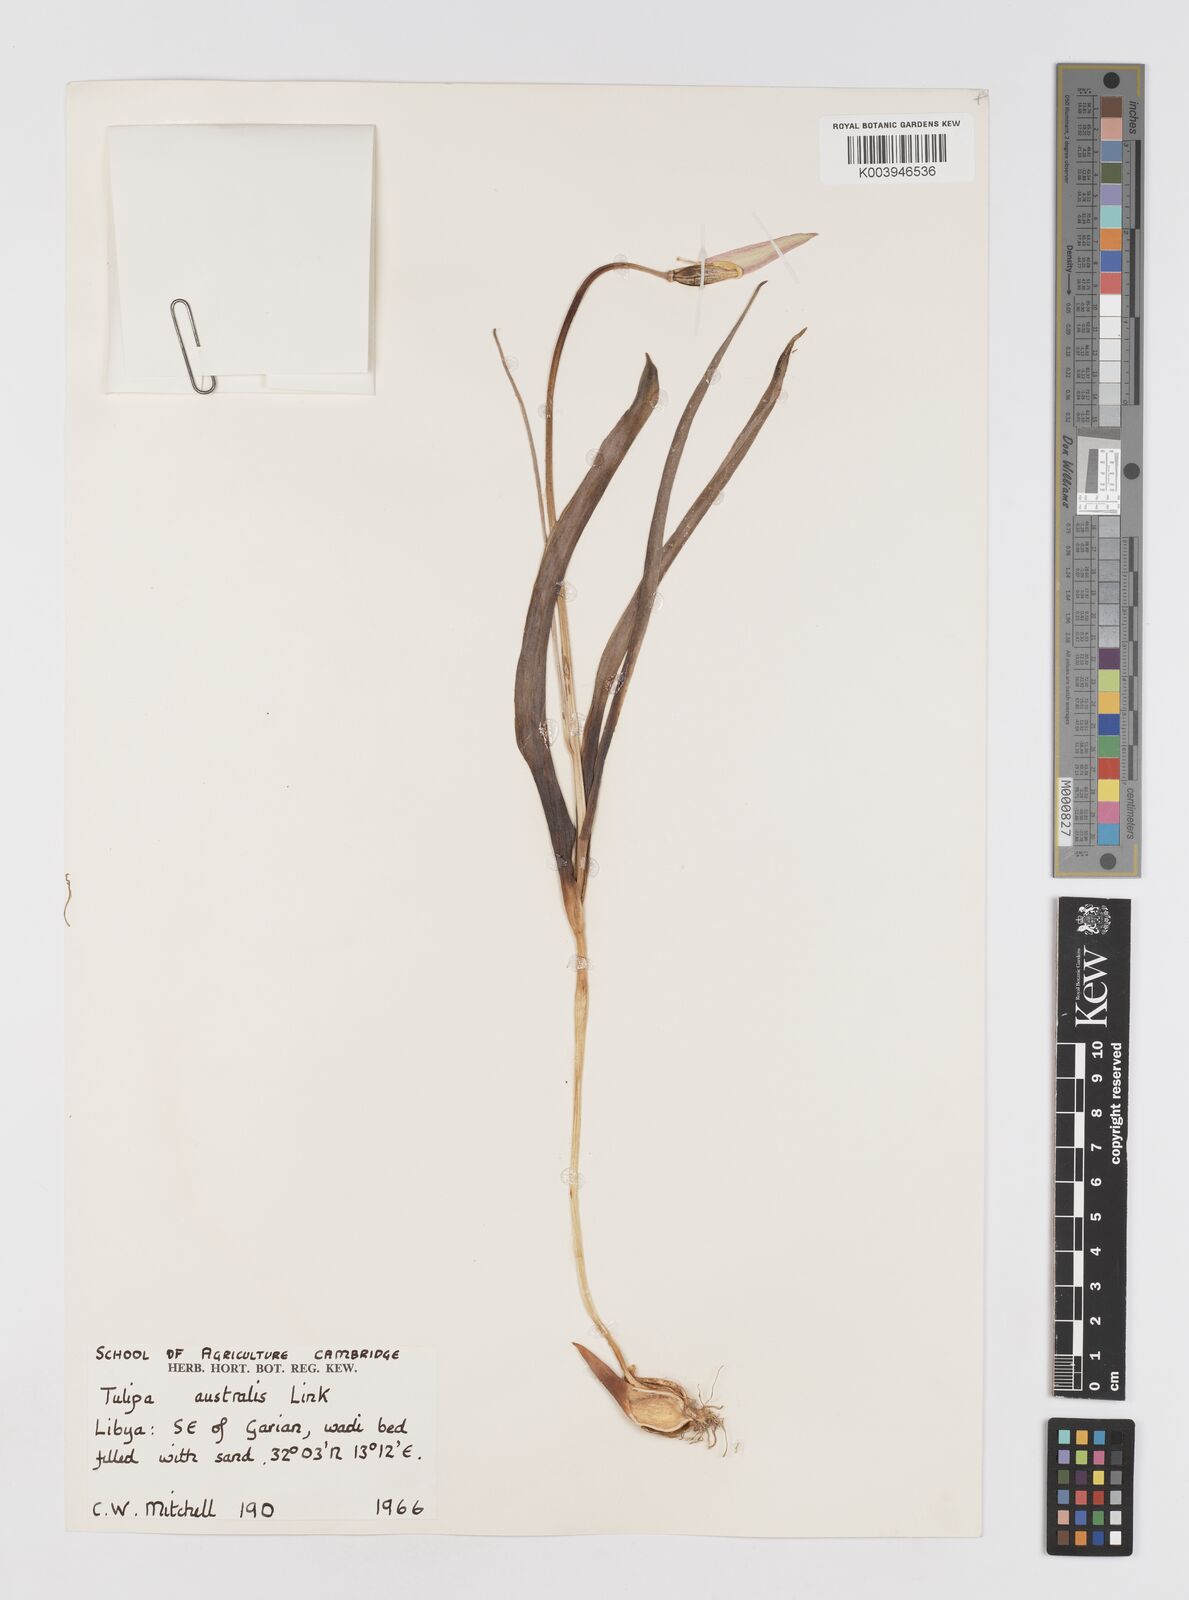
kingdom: Plantae
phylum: Tracheophyta
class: Liliopsida
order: Liliales
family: Liliaceae
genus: Tulipa
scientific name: Tulipa sylvestris
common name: Wild tulip
